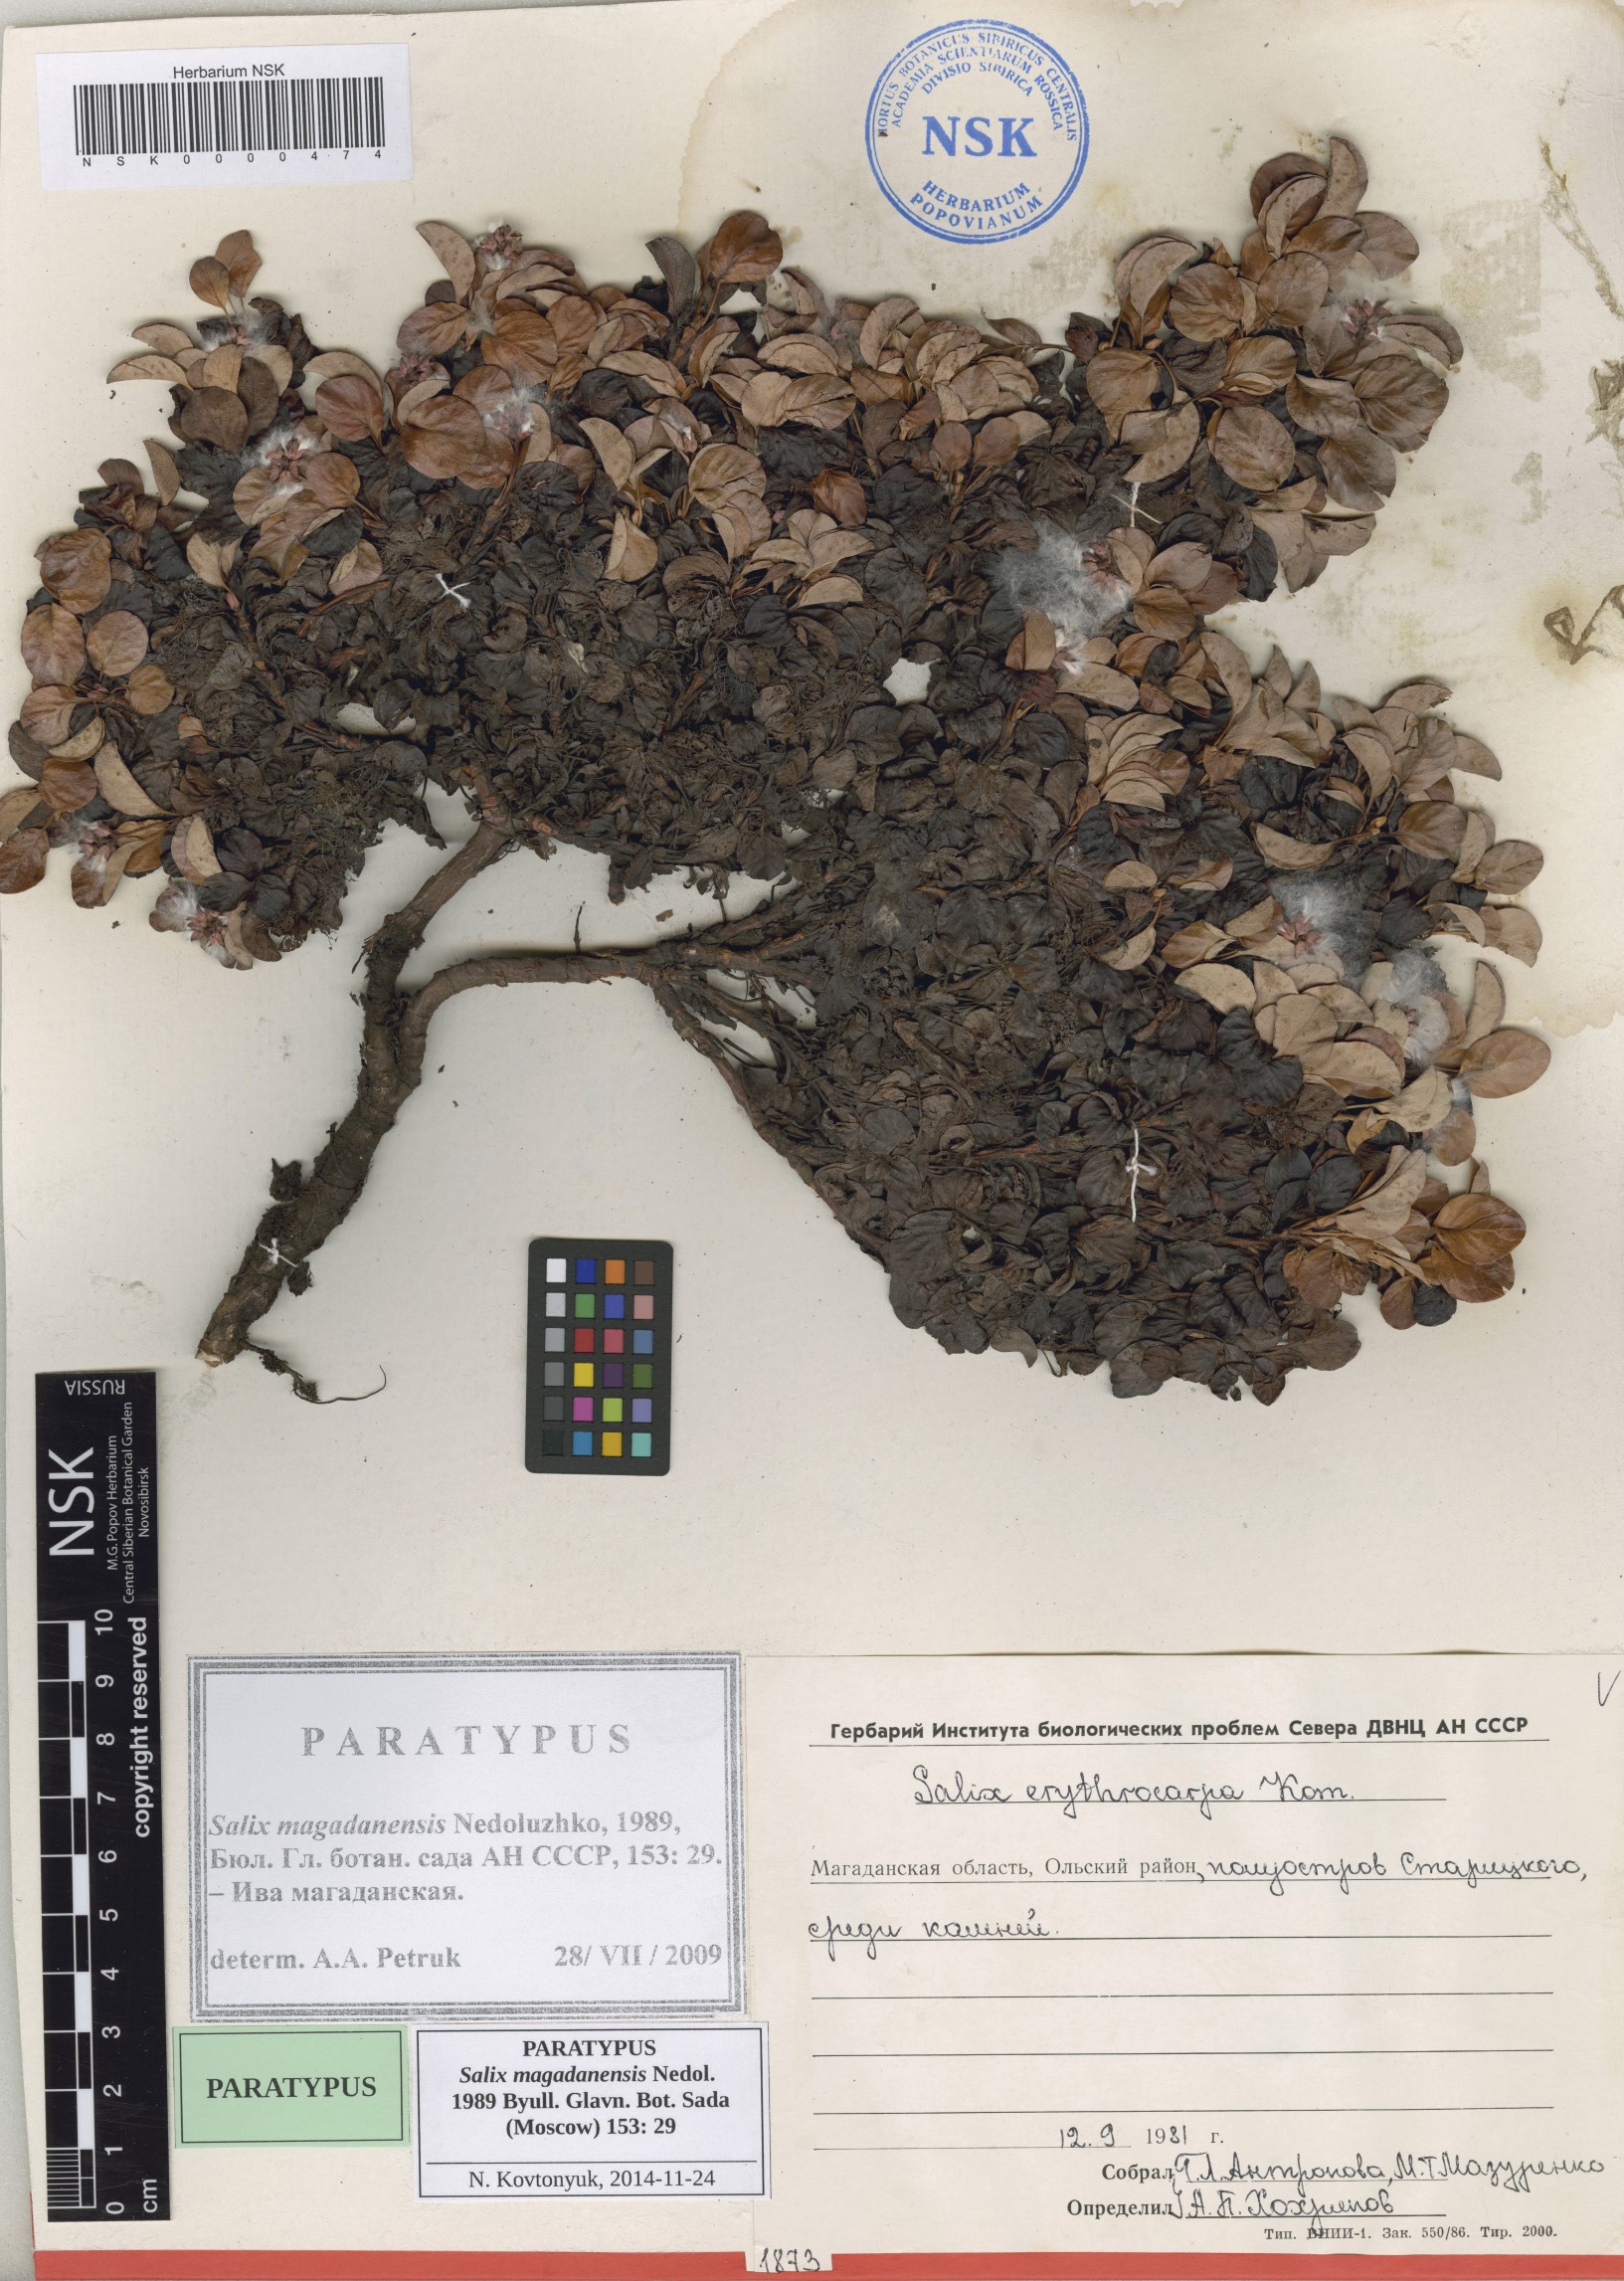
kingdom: Plantae
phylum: Tracheophyta
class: Magnoliopsida
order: Malpighiales
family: Salicaceae
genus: Salix
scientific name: Salix magadanensis
